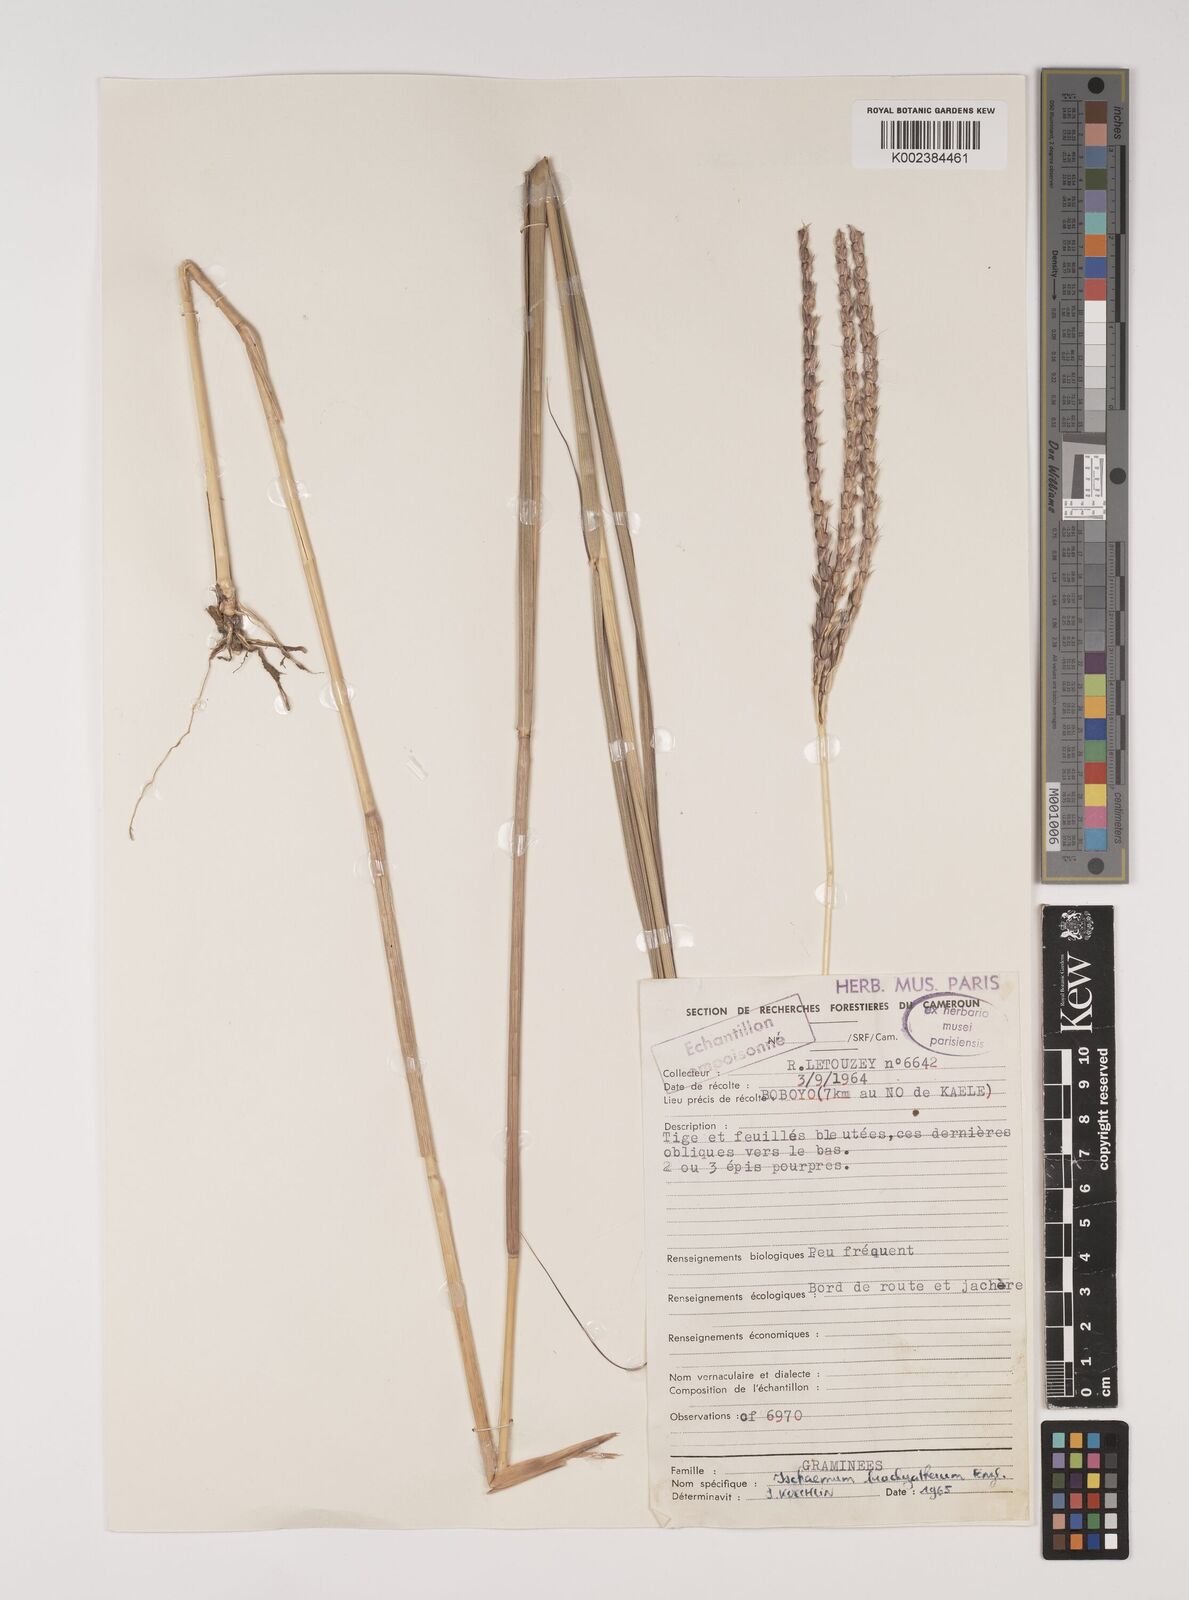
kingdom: Plantae
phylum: Tracheophyta
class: Liliopsida
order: Poales
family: Poaceae
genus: Ischaemum
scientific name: Ischaemum afrum
